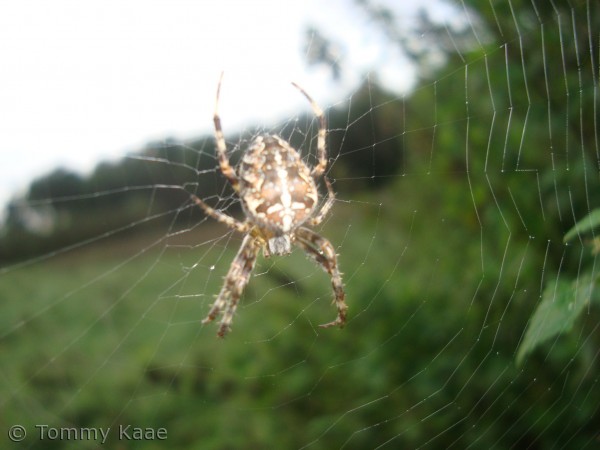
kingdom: Animalia
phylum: Arthropoda
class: Arachnida
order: Araneae
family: Araneidae
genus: Araneus
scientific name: Araneus diadematus
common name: Korsedderkop
